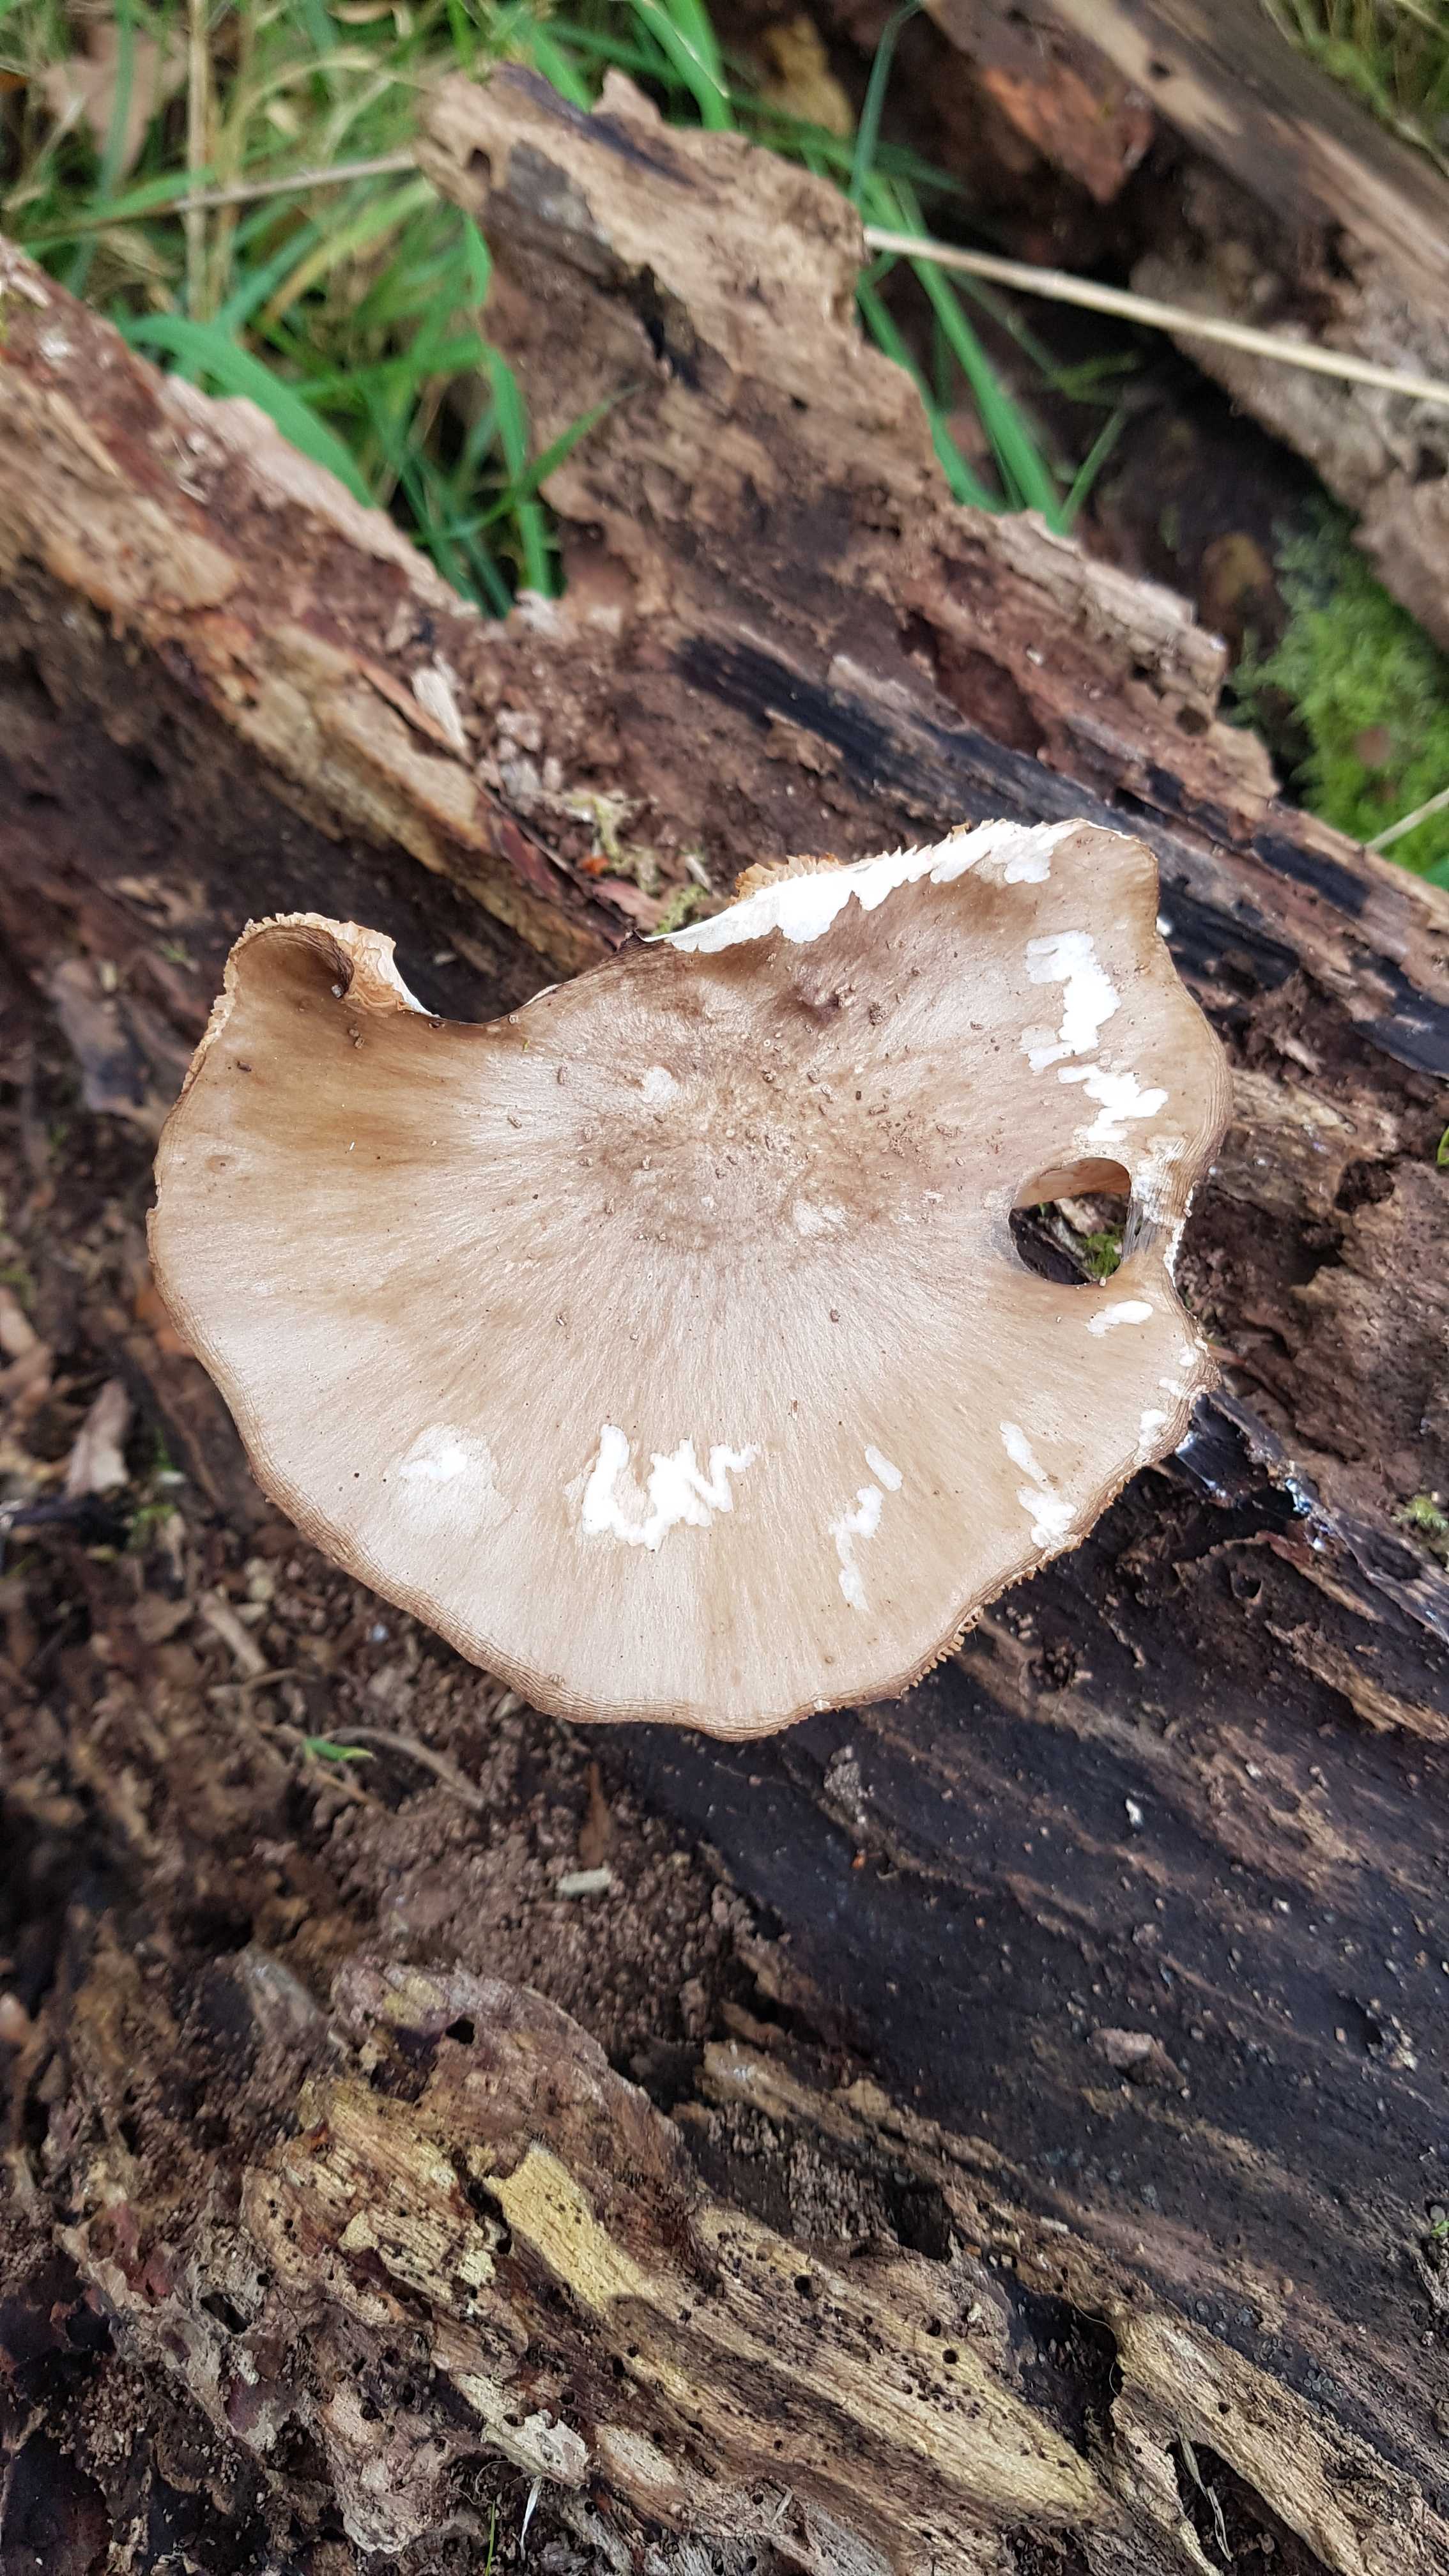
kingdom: Fungi
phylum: Basidiomycota
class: Agaricomycetes
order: Agaricales
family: Pluteaceae
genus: Pluteus
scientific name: Pluteus cervinus
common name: sodfarvet skærmhat
